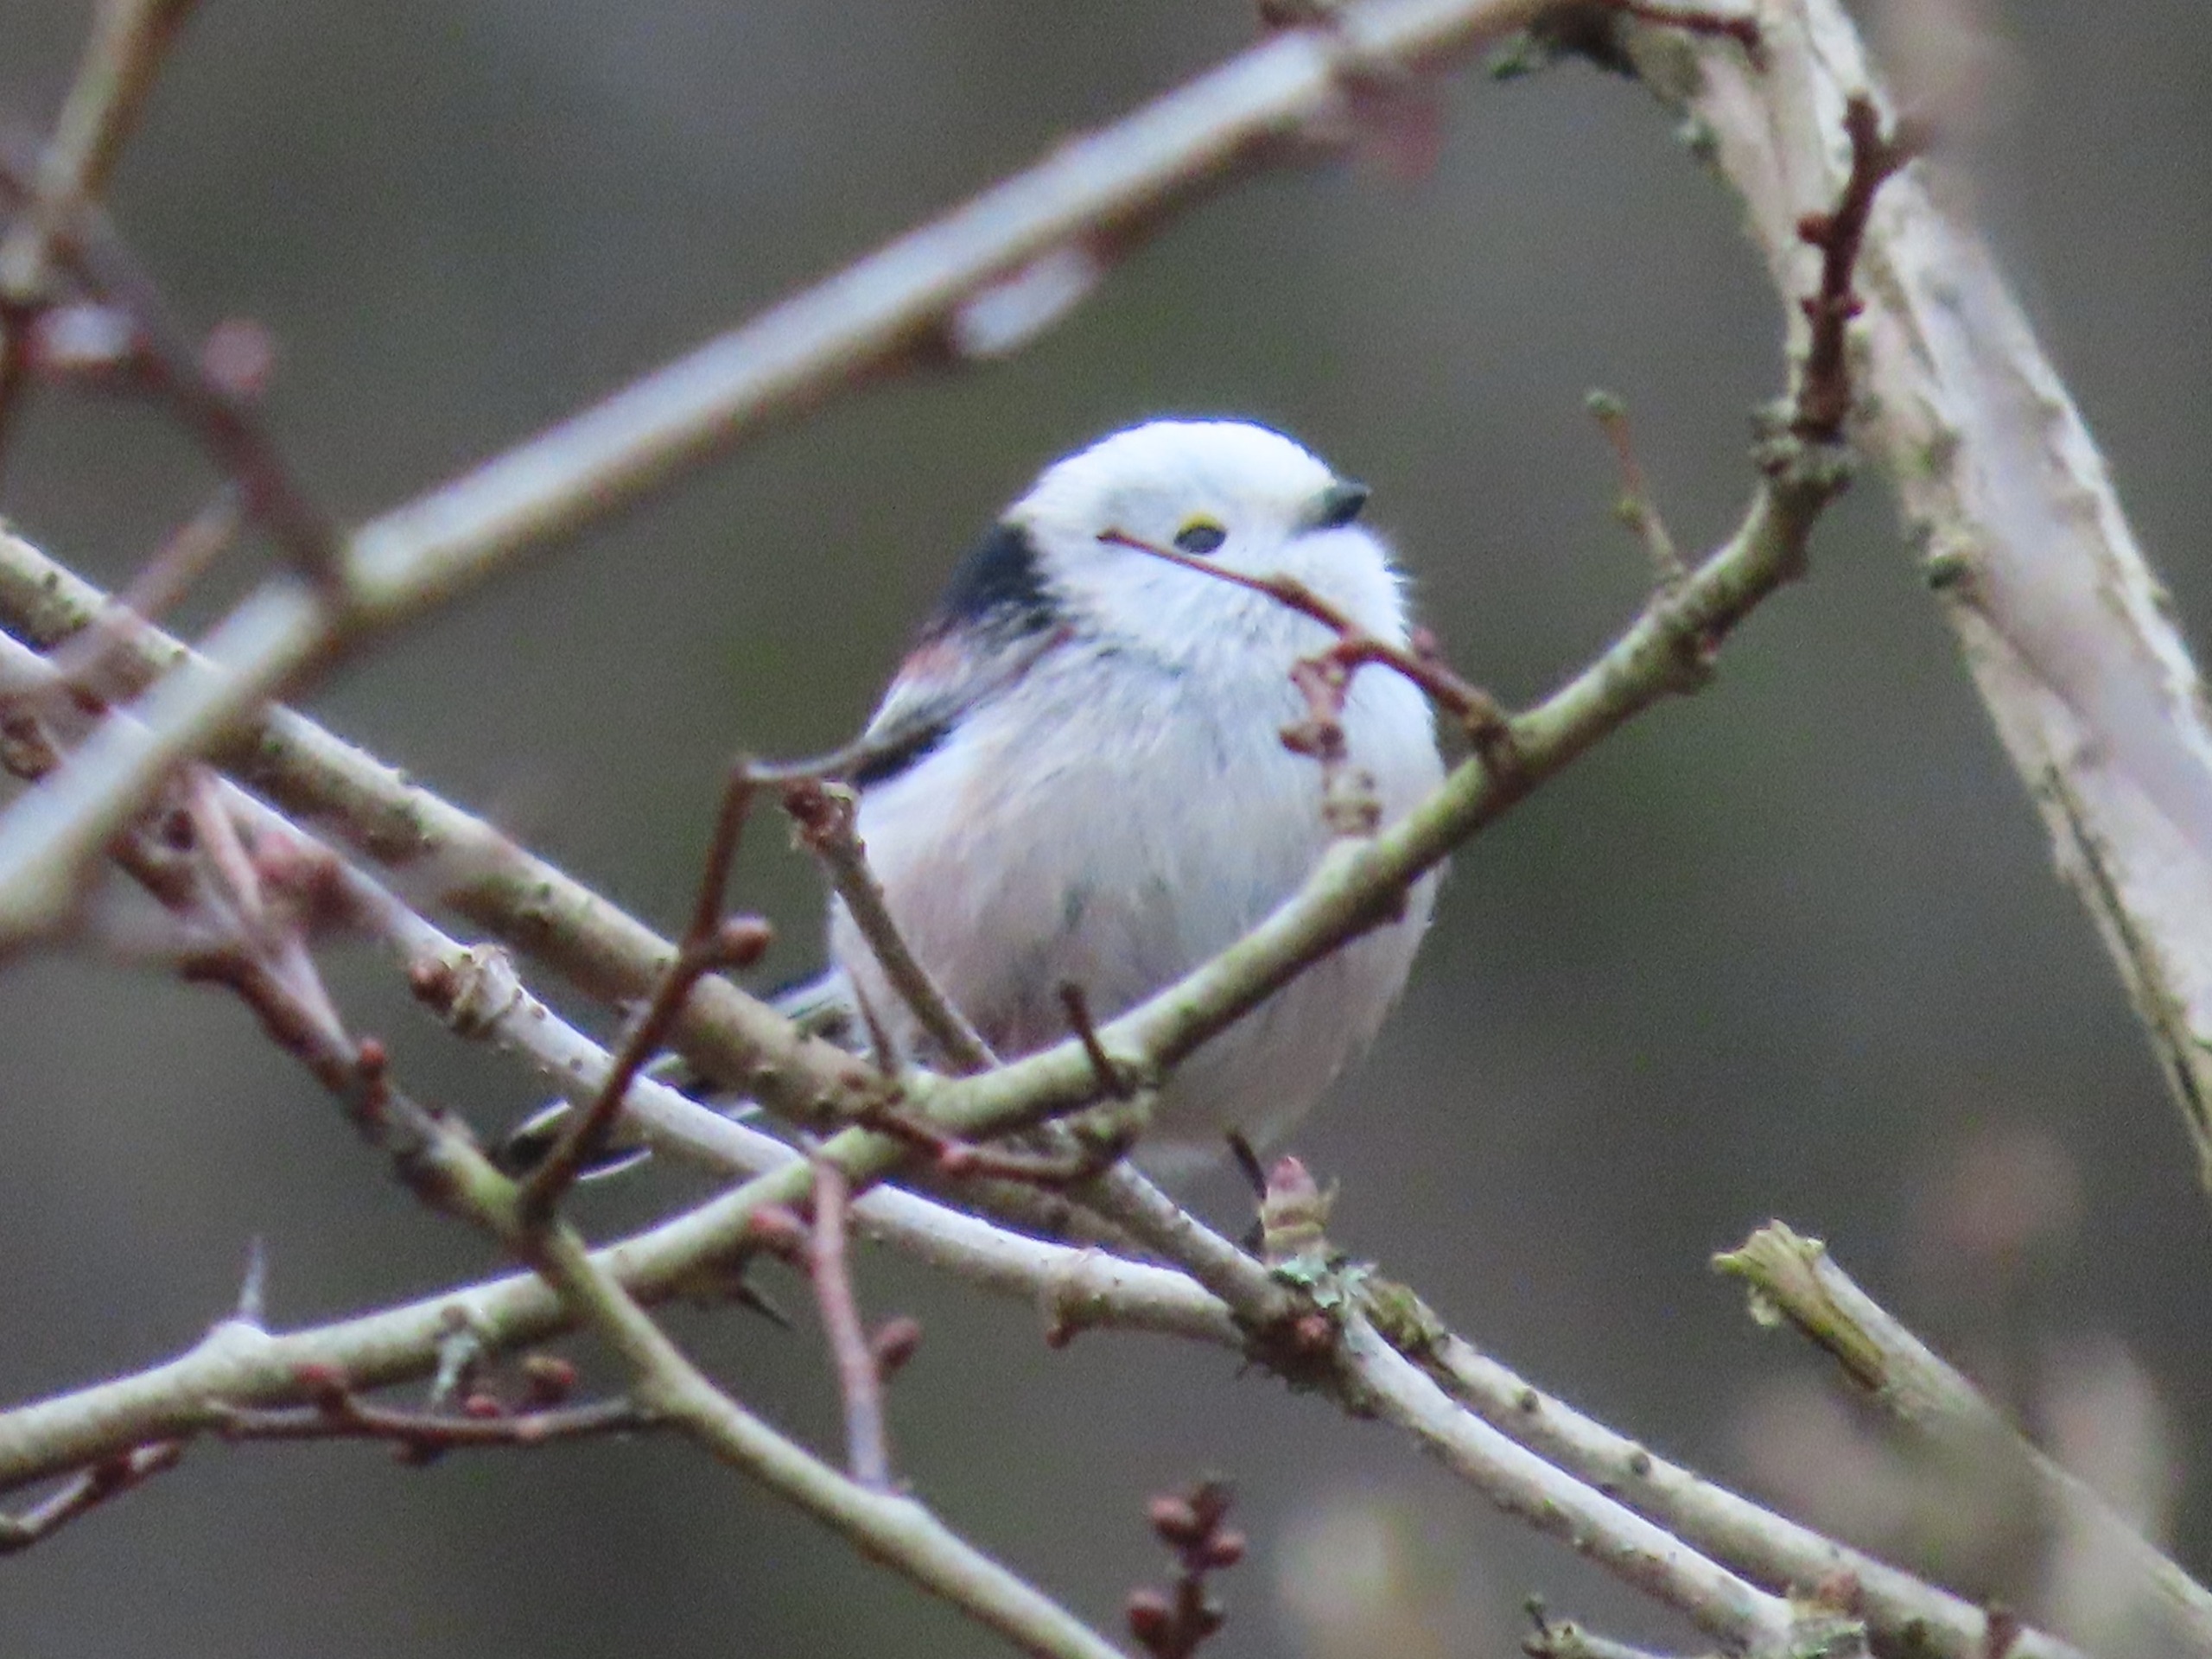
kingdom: Animalia
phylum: Chordata
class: Aves
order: Passeriformes
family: Aegithalidae
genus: Aegithalos
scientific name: Aegithalos caudatus
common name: Nordlig halemejse
